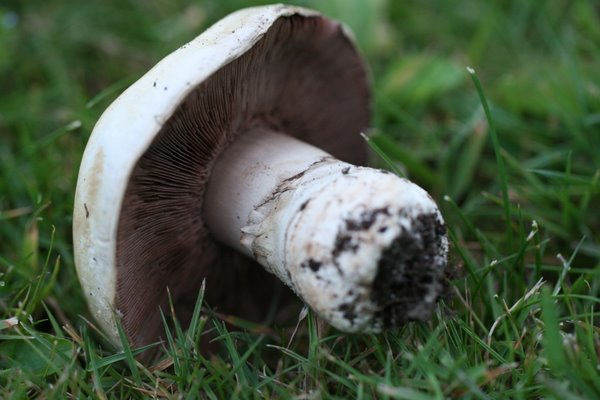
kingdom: Fungi
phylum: Basidiomycota
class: Agaricomycetes
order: Agaricales
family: Agaricaceae
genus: Agaricus
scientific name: Agaricus bitorquis
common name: vej-champignon
